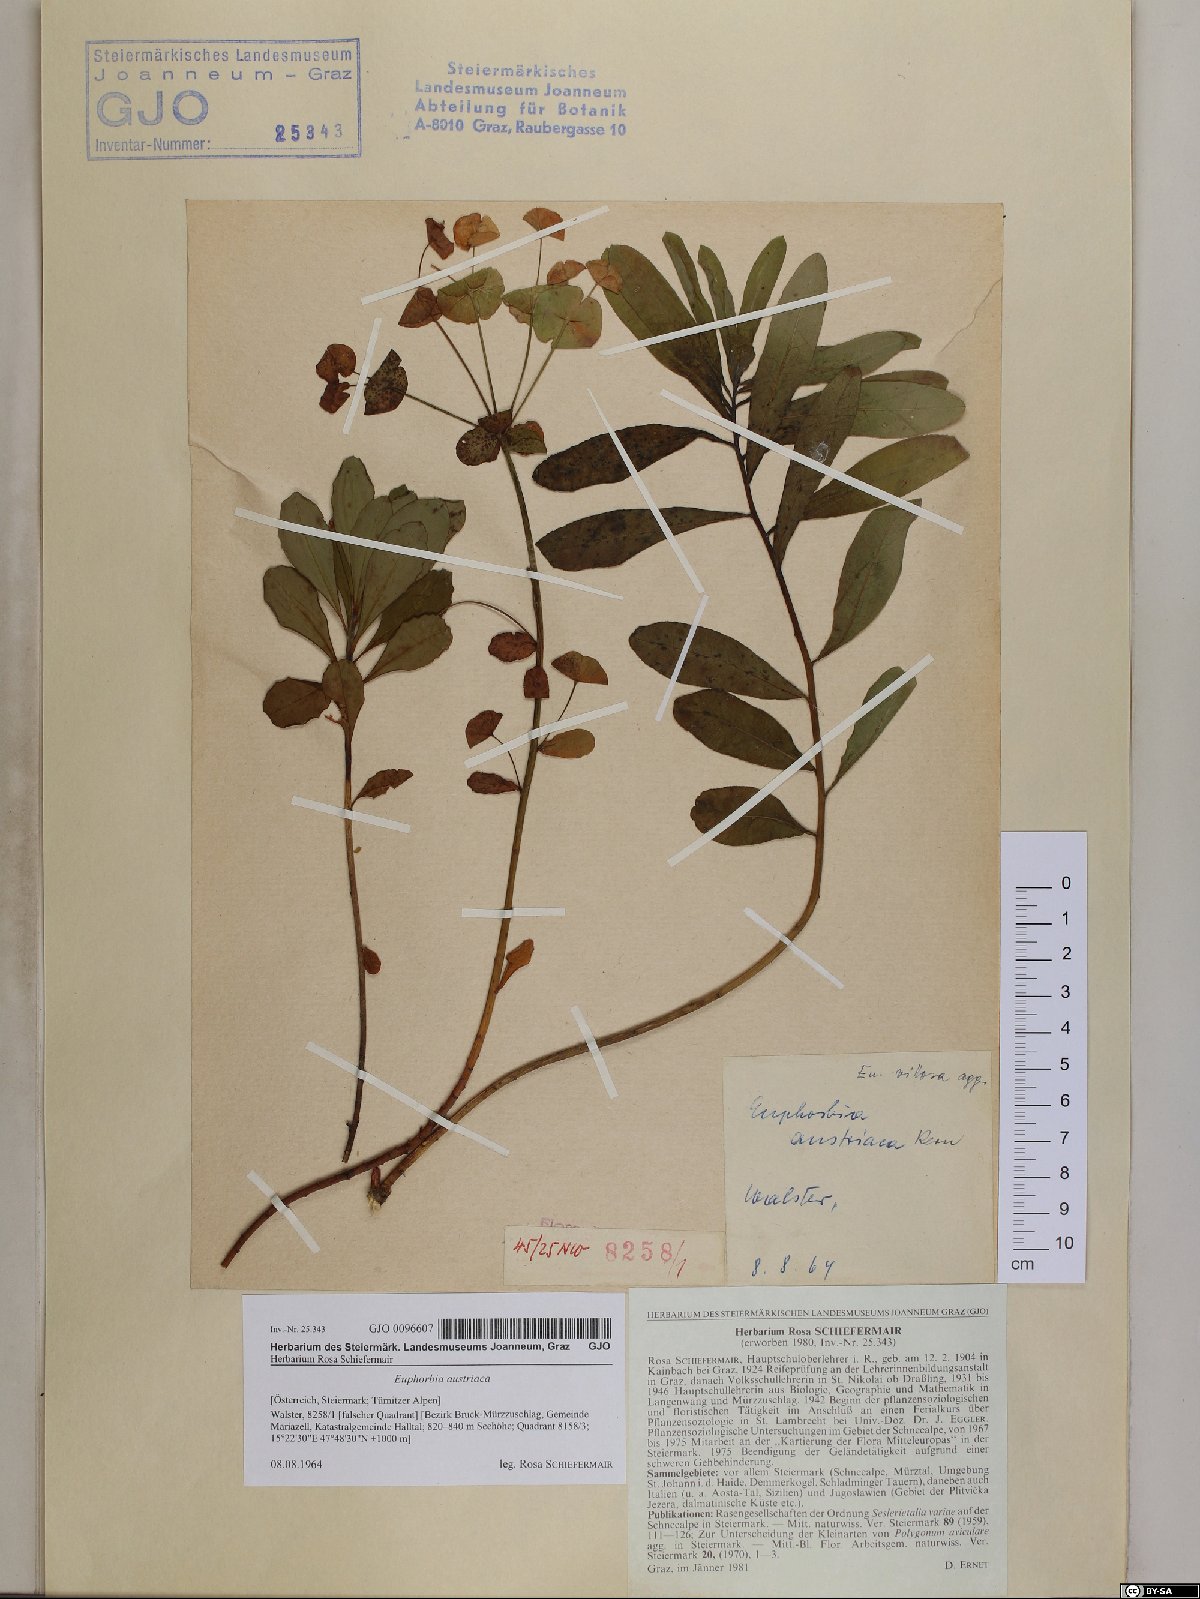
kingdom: Plantae
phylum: Tracheophyta
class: Magnoliopsida
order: Malpighiales
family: Euphorbiaceae
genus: Euphorbia
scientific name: Euphorbia austriaca
